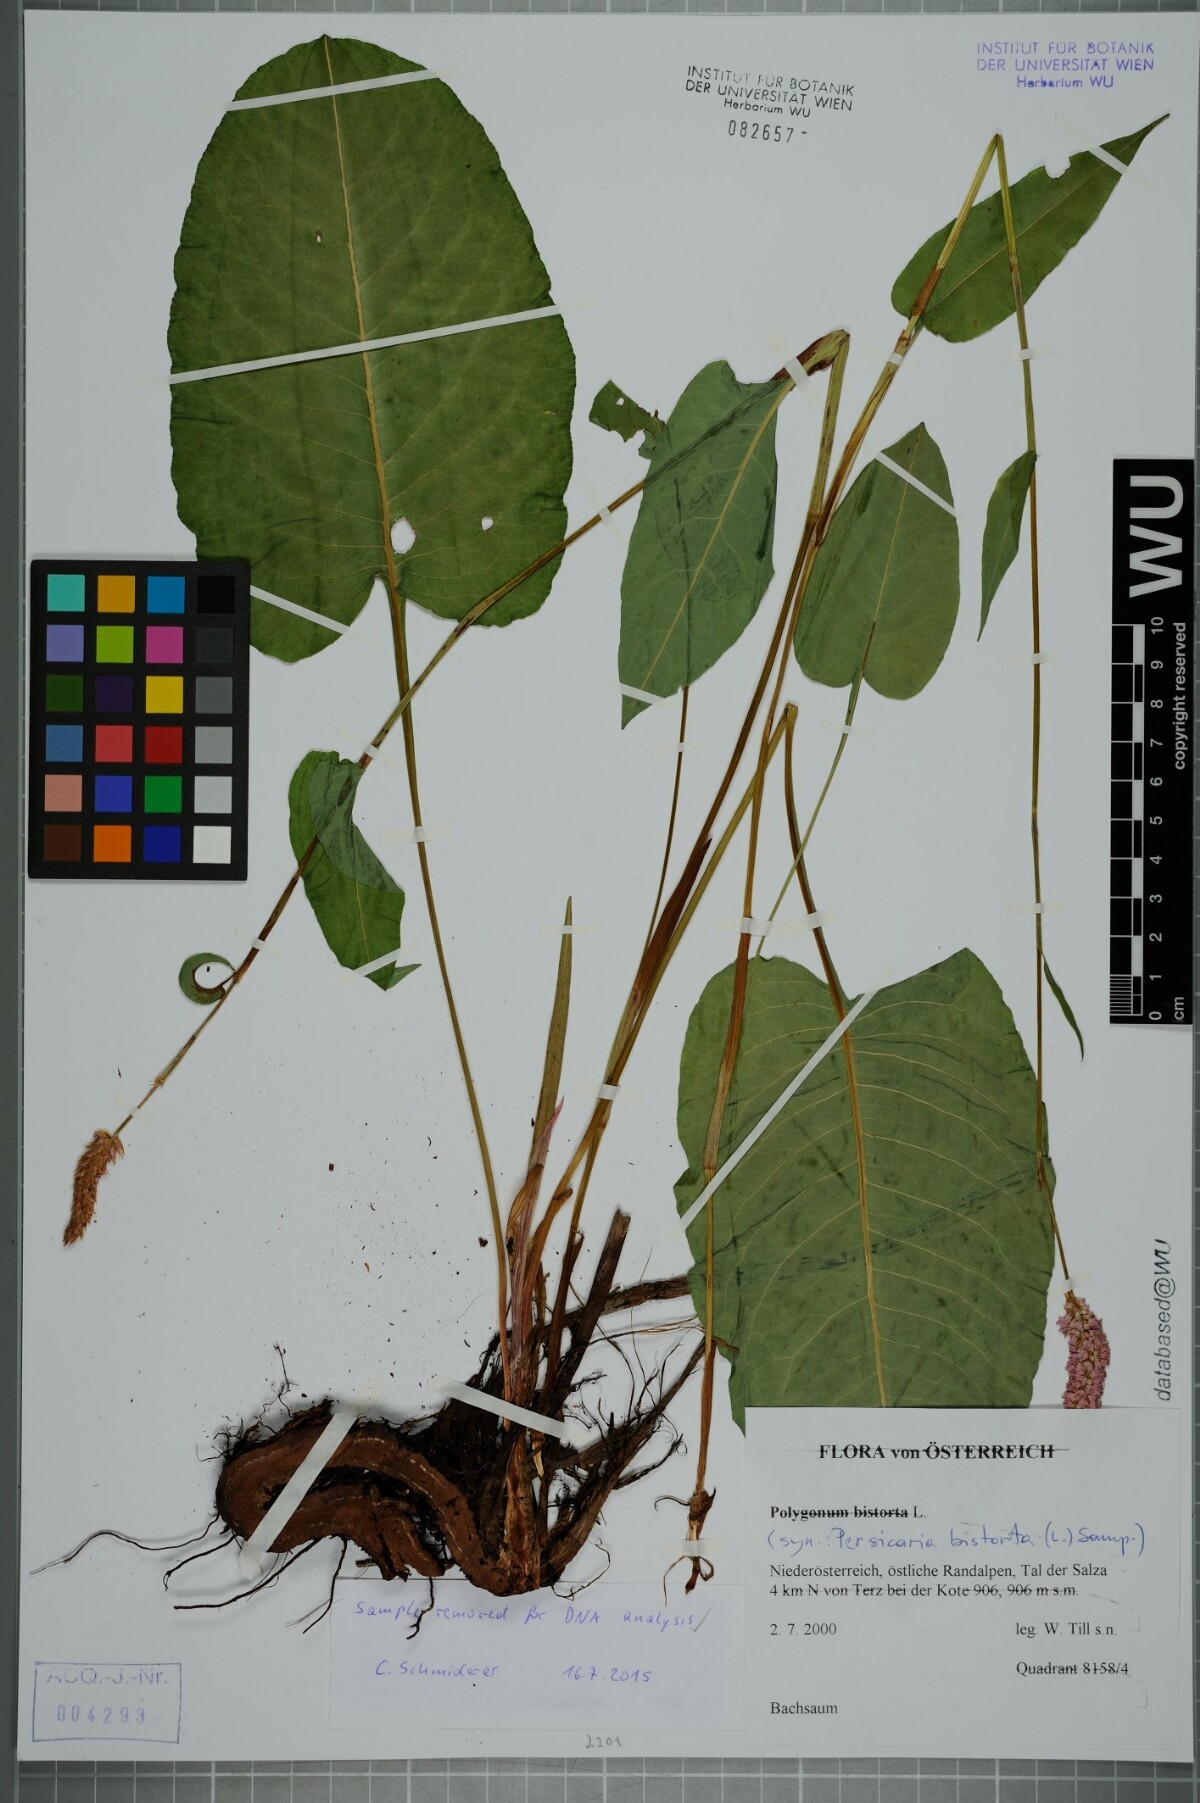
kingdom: Plantae
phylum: Tracheophyta
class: Magnoliopsida
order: Caryophyllales
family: Polygonaceae
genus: Bistorta
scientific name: Bistorta officinalis
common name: Common bistort
